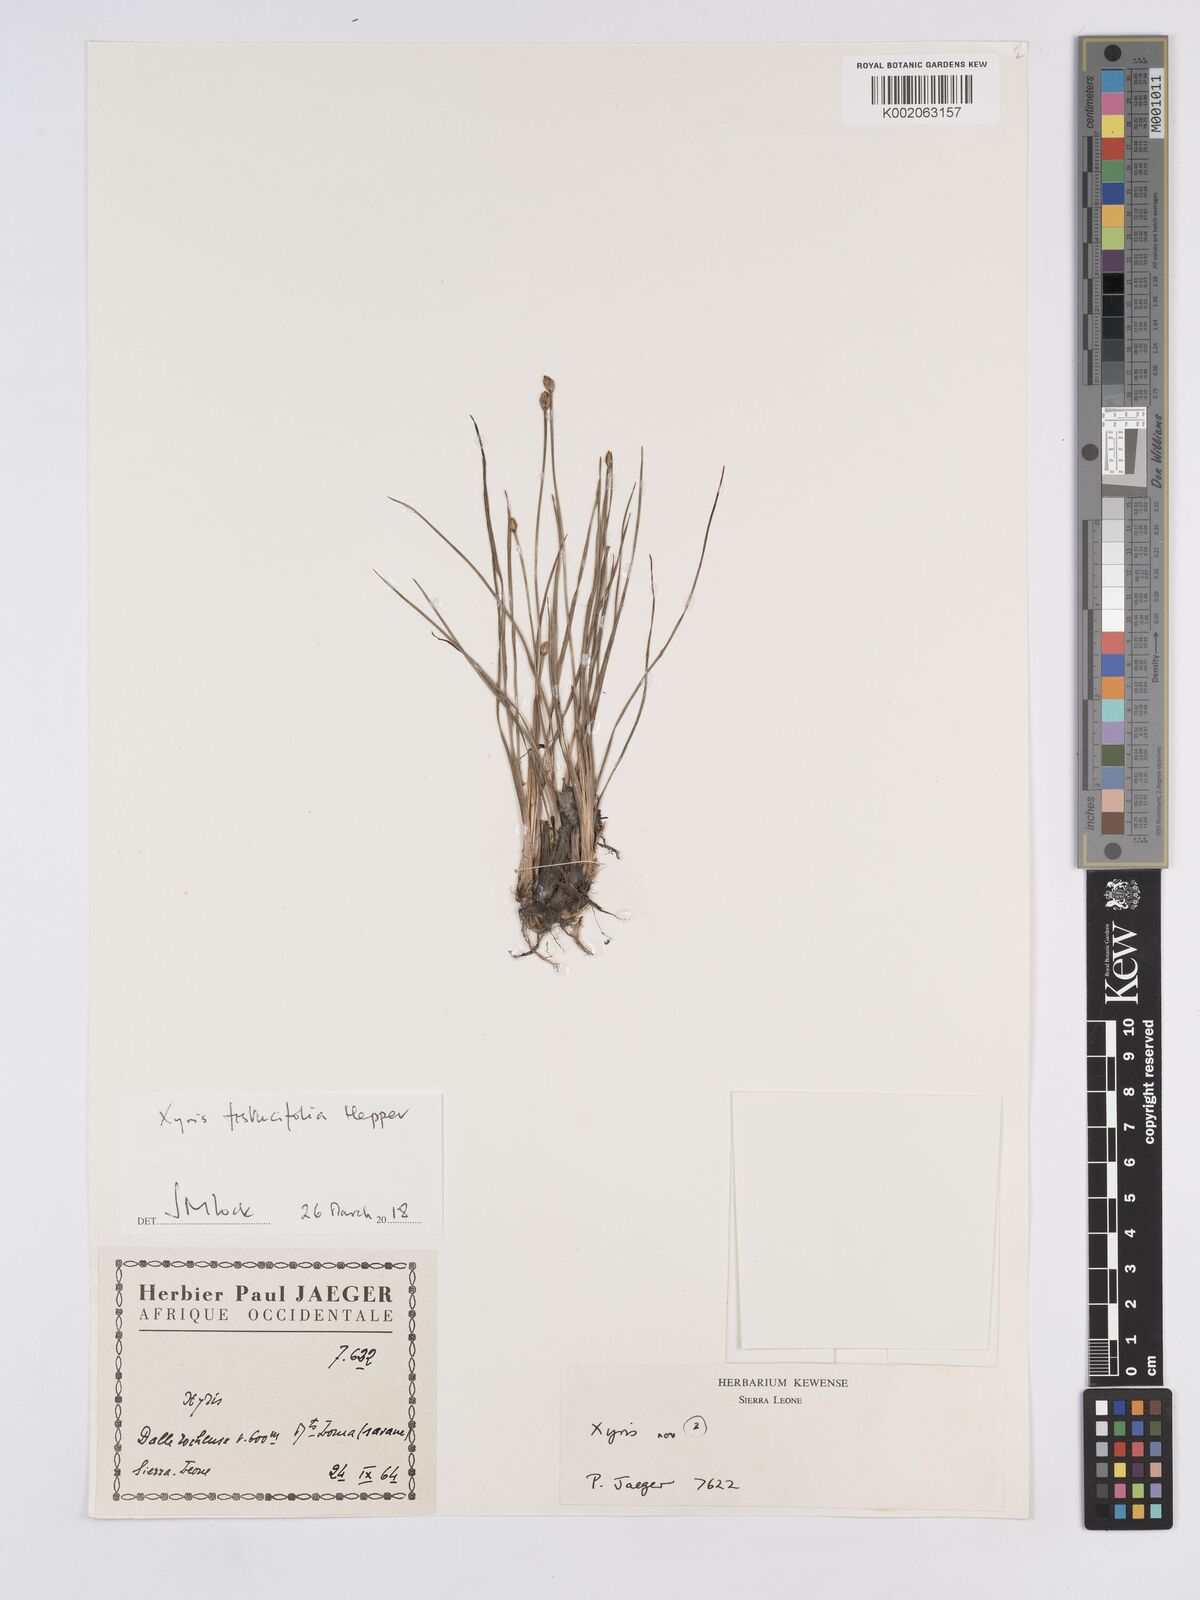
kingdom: Plantae
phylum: Tracheophyta
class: Liliopsida
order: Poales
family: Xyridaceae
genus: Xyris
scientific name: Xyris festucifolia
